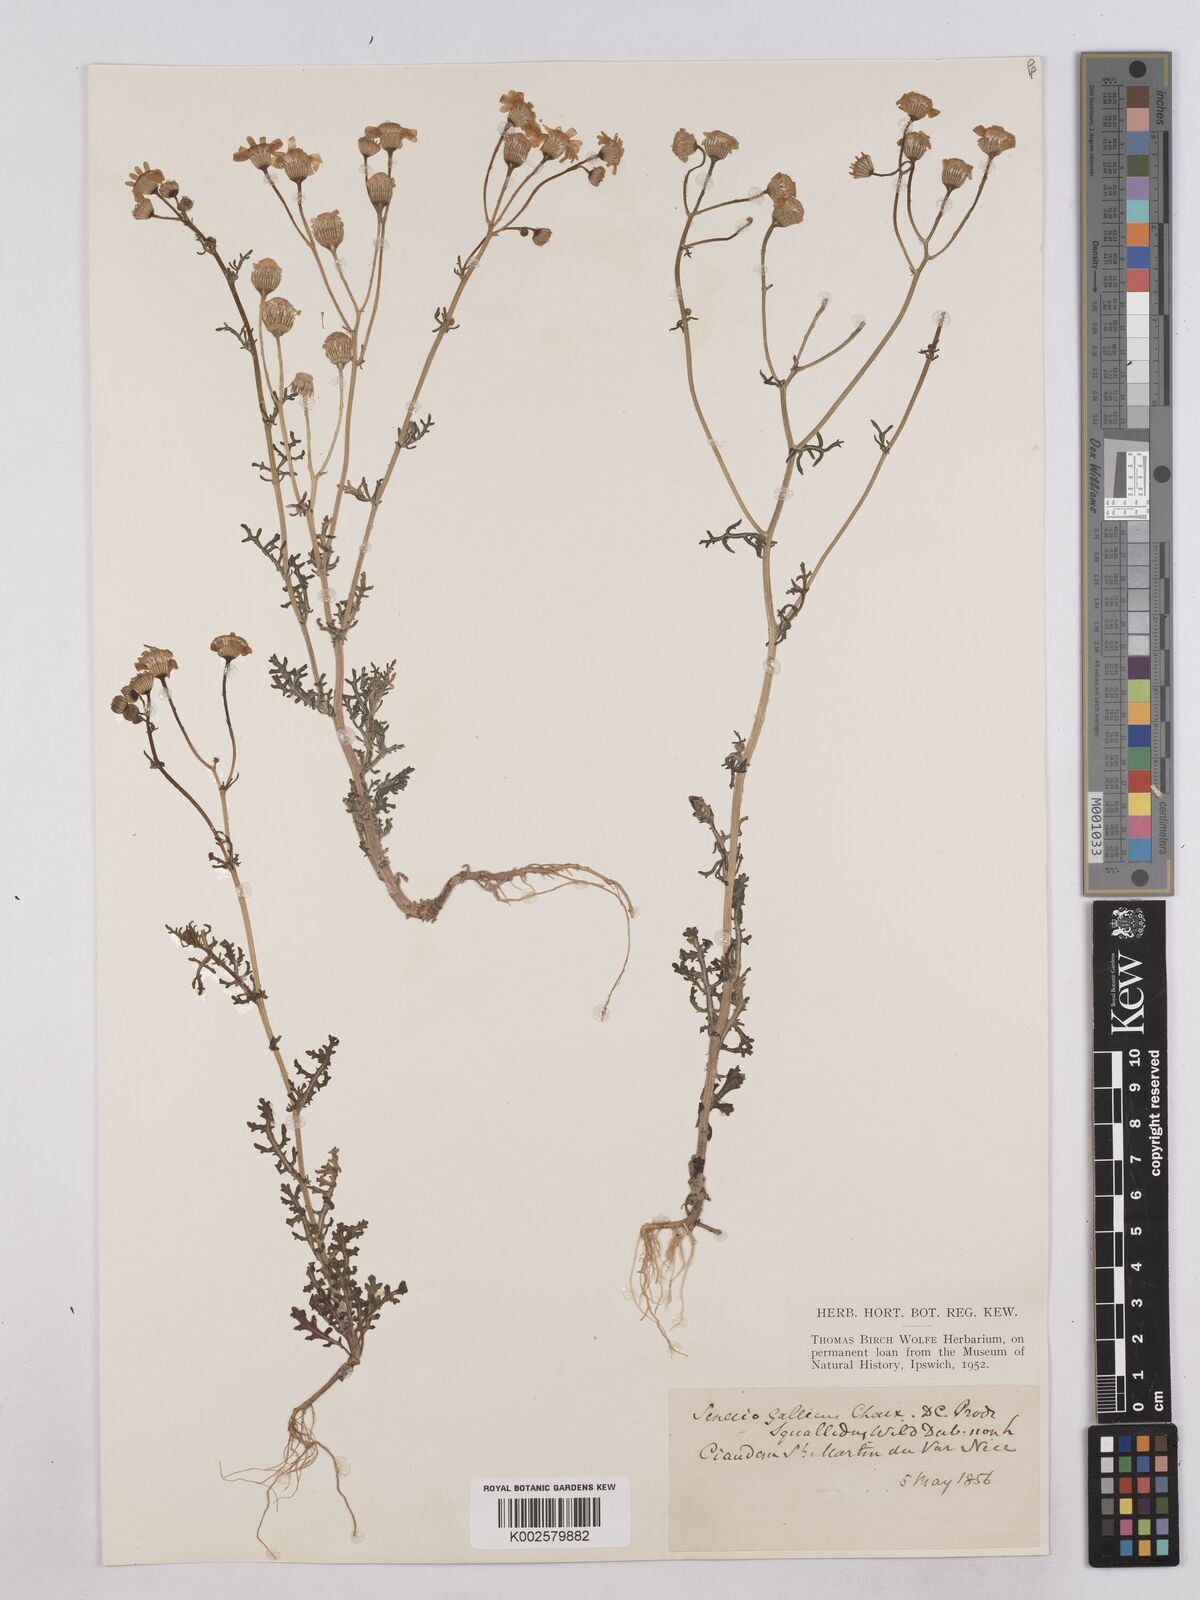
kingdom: Plantae
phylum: Tracheophyta
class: Magnoliopsida
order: Asterales
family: Asteraceae
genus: Senecio
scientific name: Senecio gallicus
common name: French groundsel
